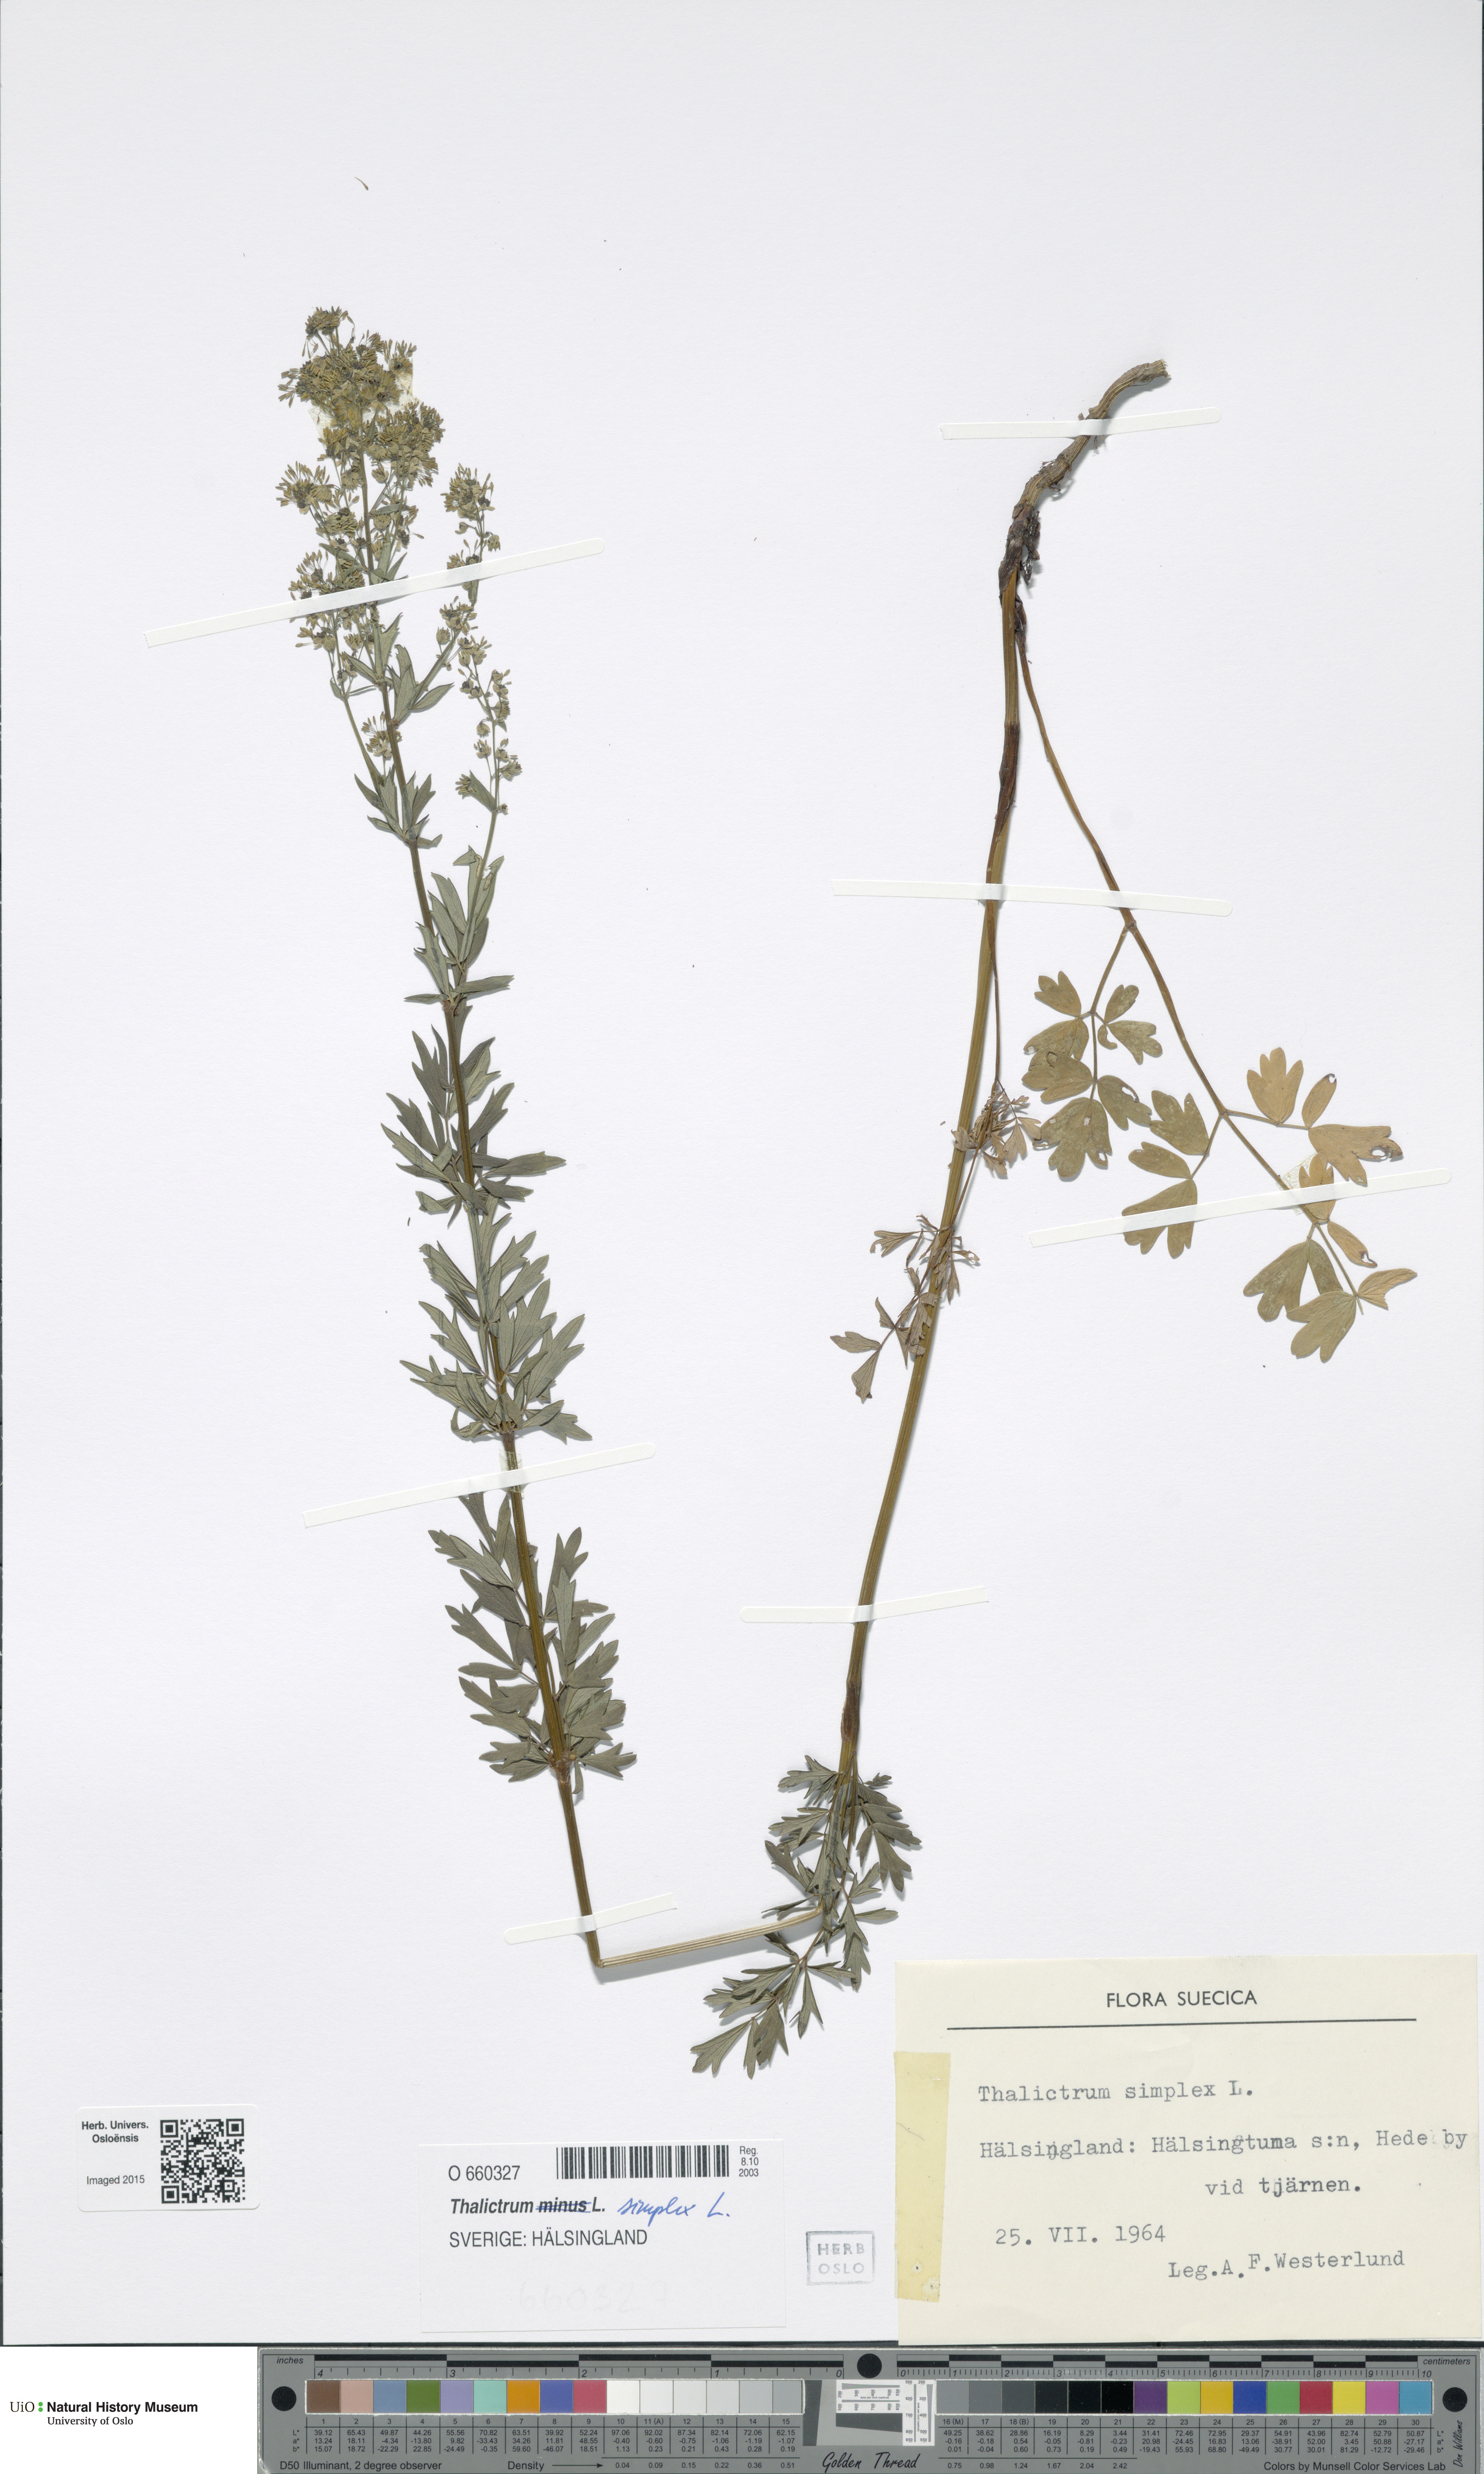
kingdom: Plantae
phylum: Tracheophyta
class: Magnoliopsida
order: Ranunculales
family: Ranunculaceae
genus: Thalictrum
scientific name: Thalictrum simplex
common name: Small meadow-rue
